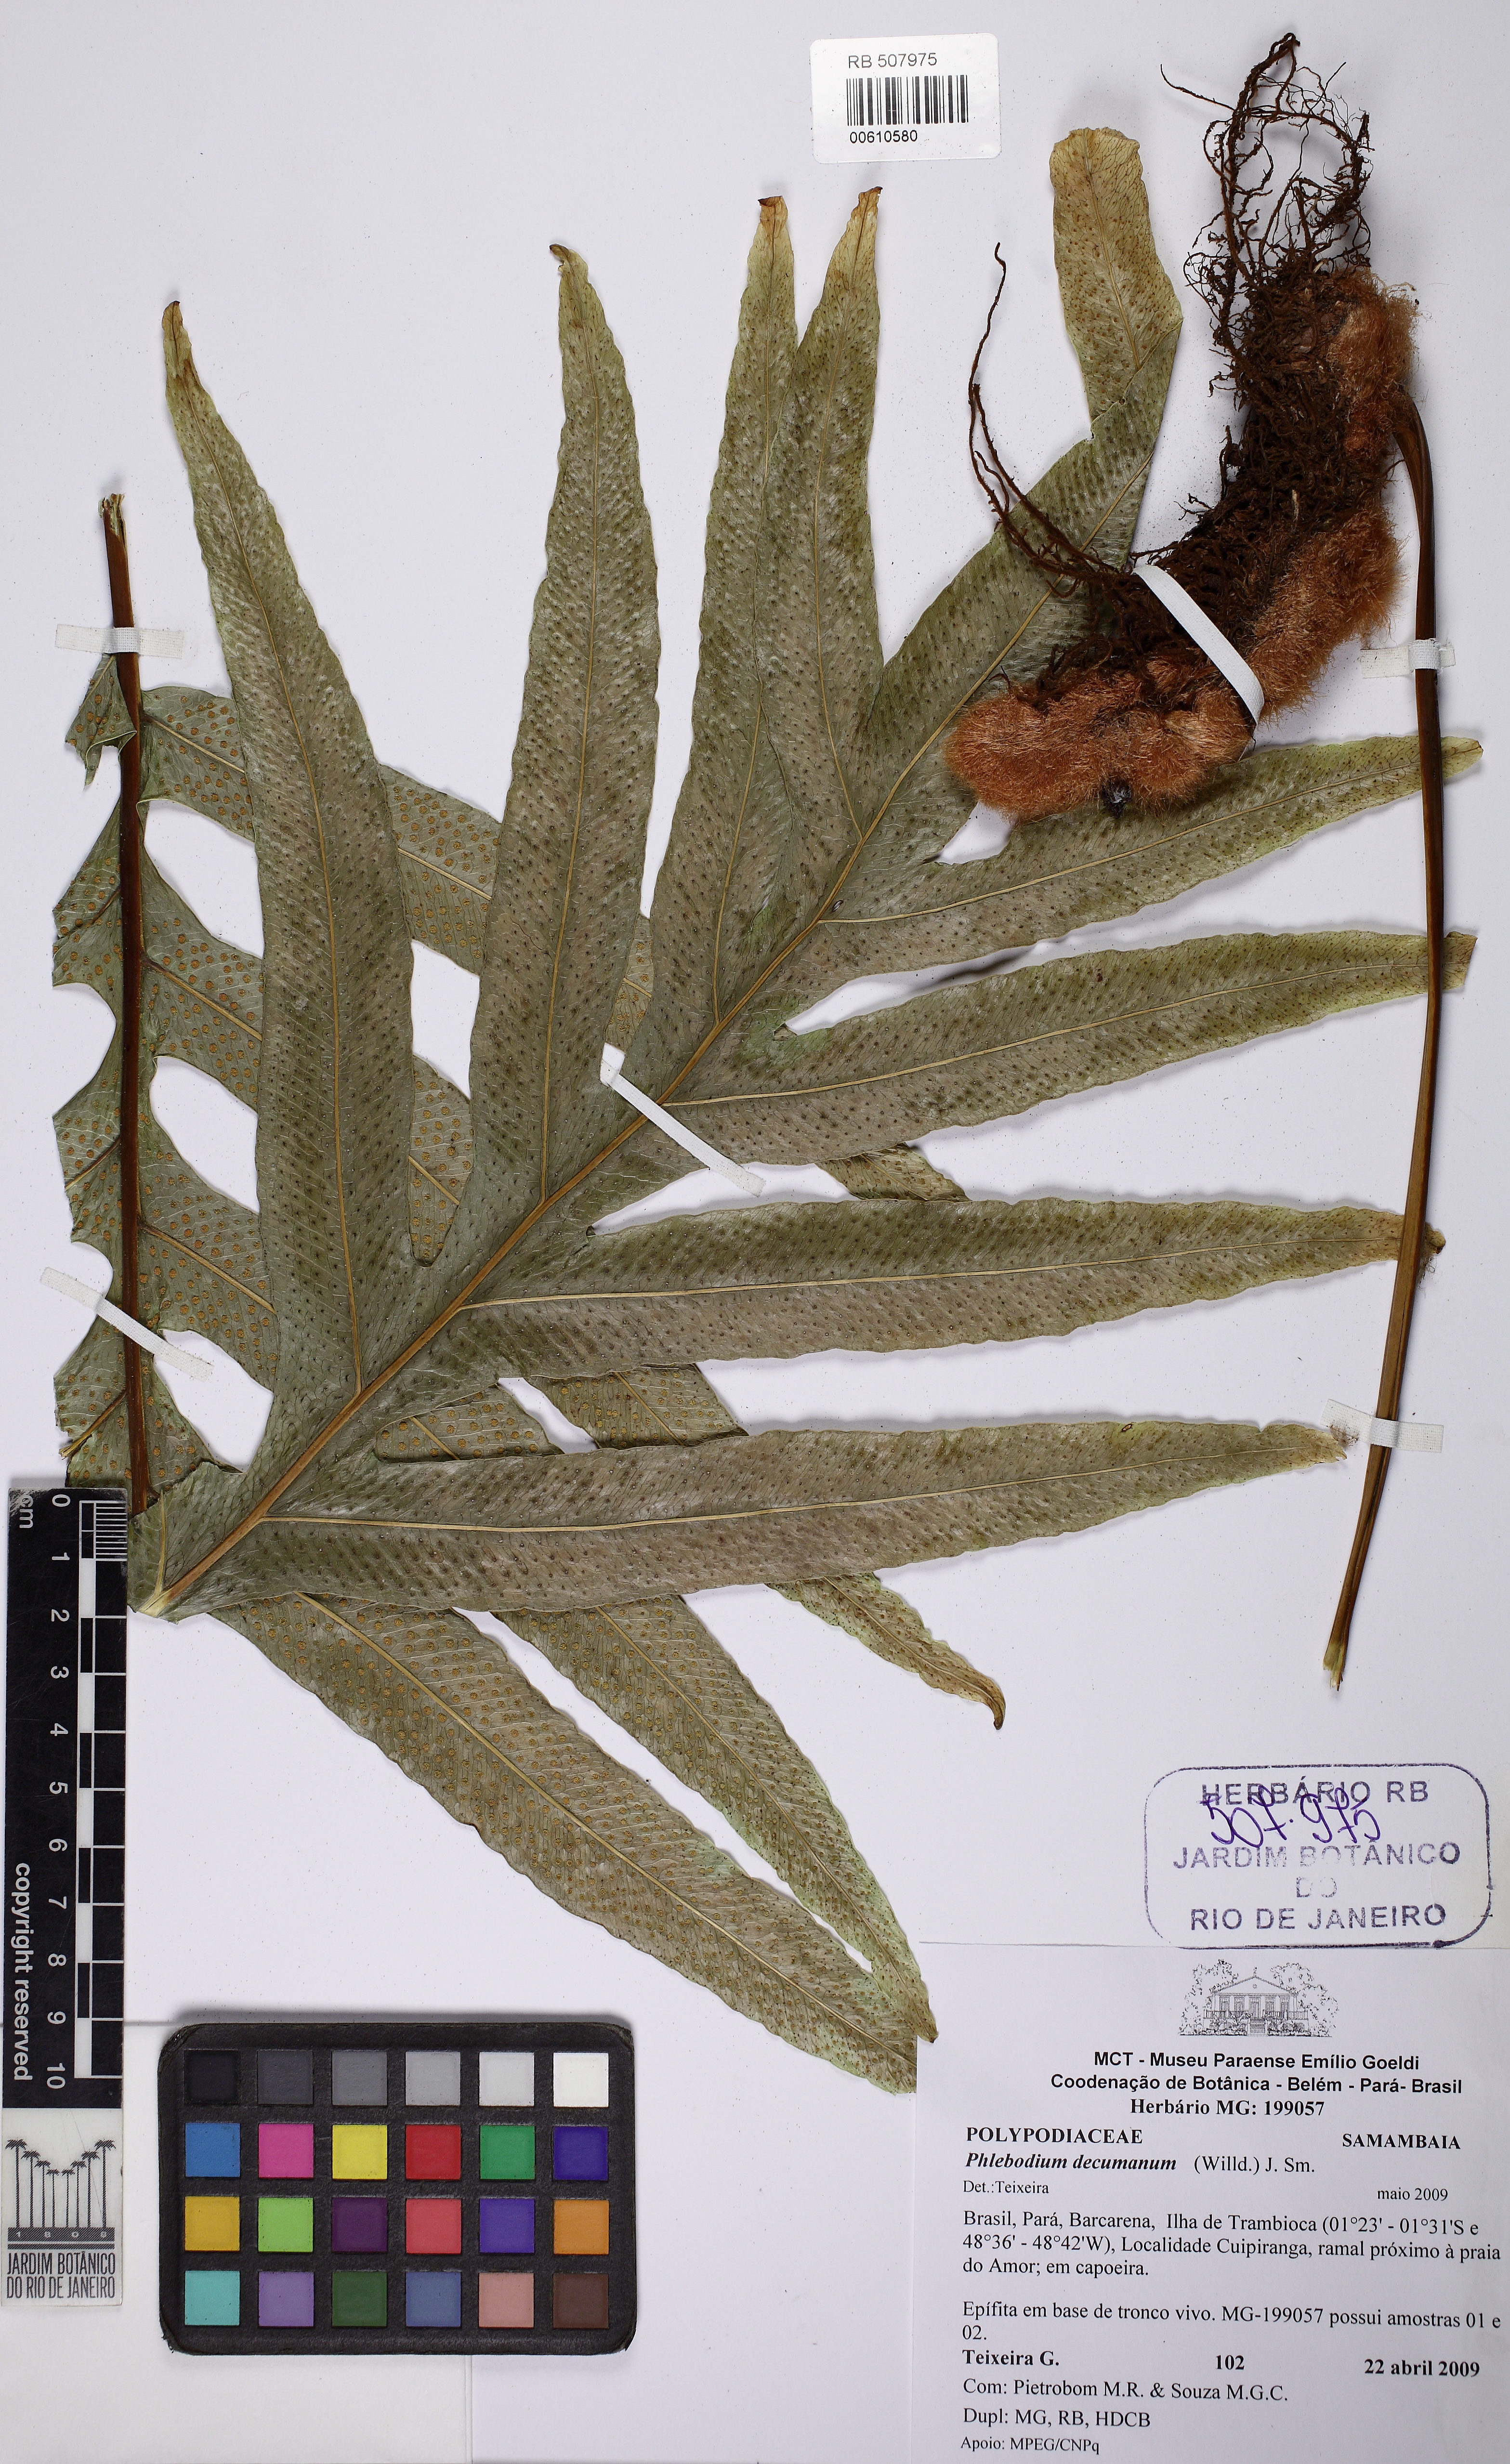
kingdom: Plantae
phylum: Tracheophyta
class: Polypodiopsida
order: Polypodiales
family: Polypodiaceae
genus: Phlebodium
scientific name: Phlebodium decumanum
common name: Golden polypod
